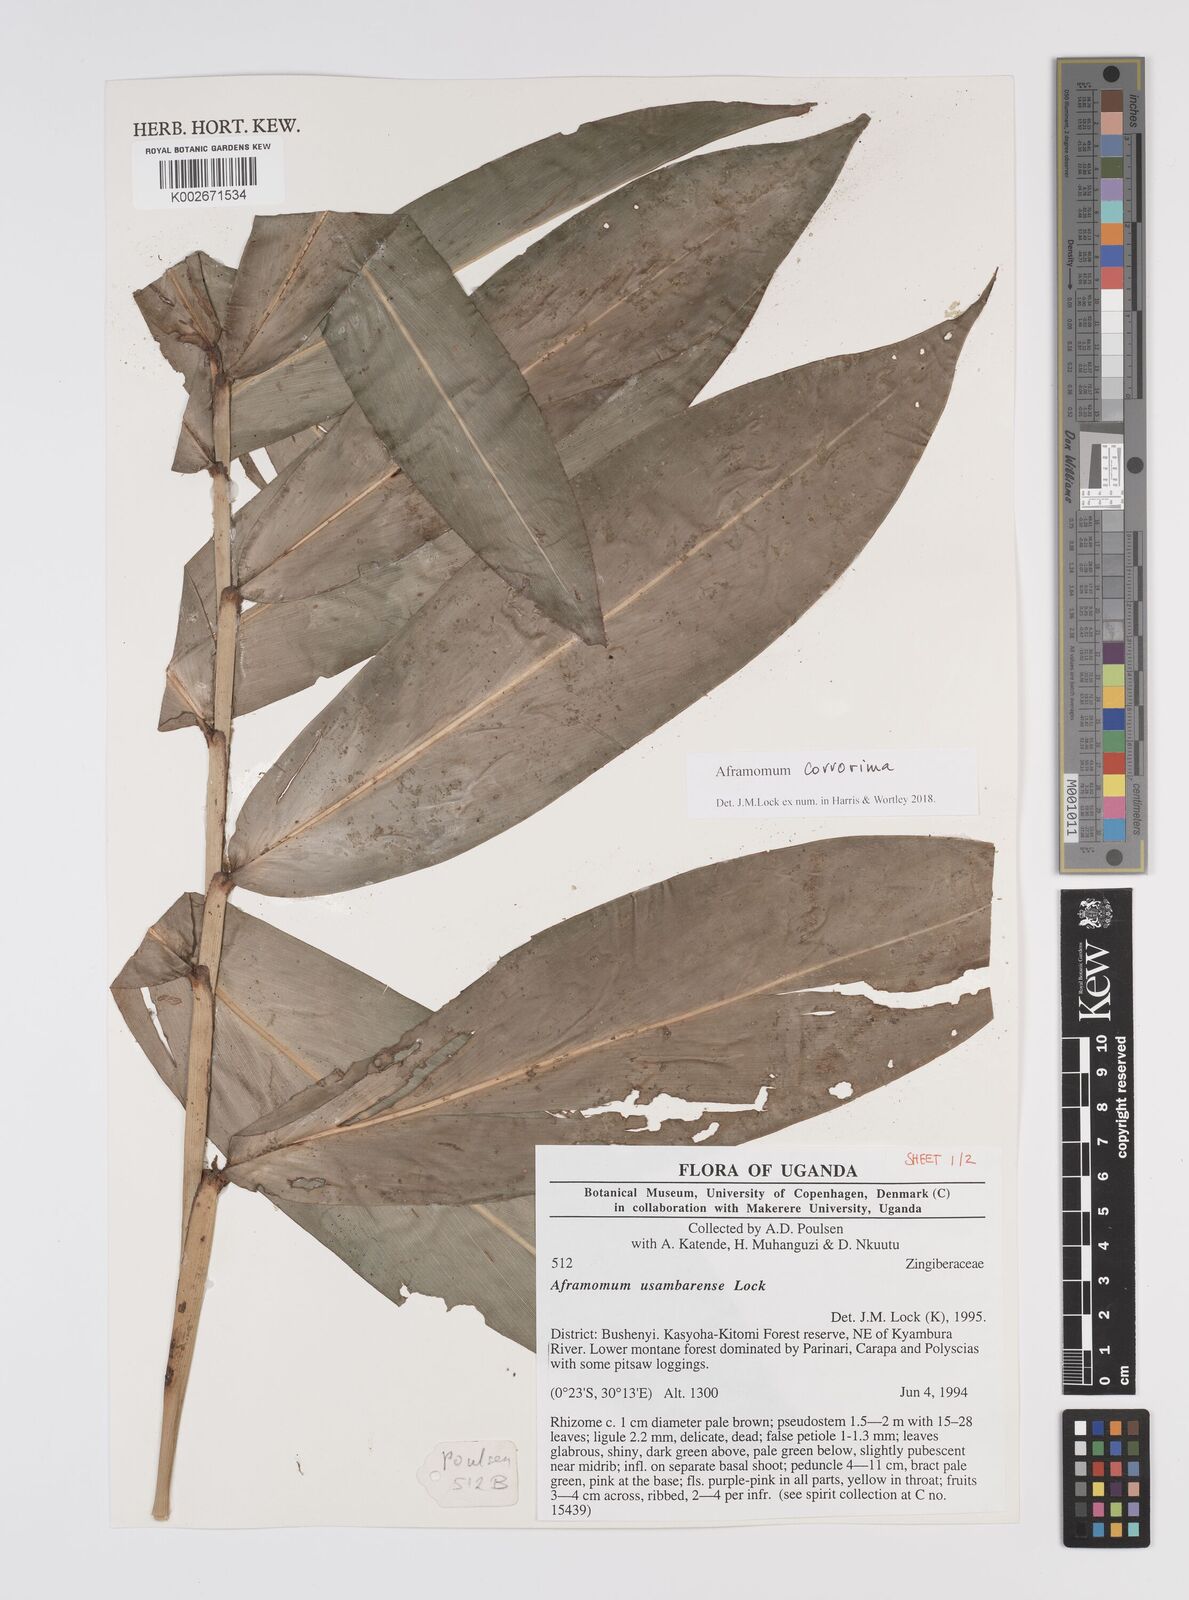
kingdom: Plantae
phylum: Tracheophyta
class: Liliopsida
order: Zingiberales
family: Zingiberaceae
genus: Aframomum
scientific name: Aframomum corrorima
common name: Ethiopian cardamom
